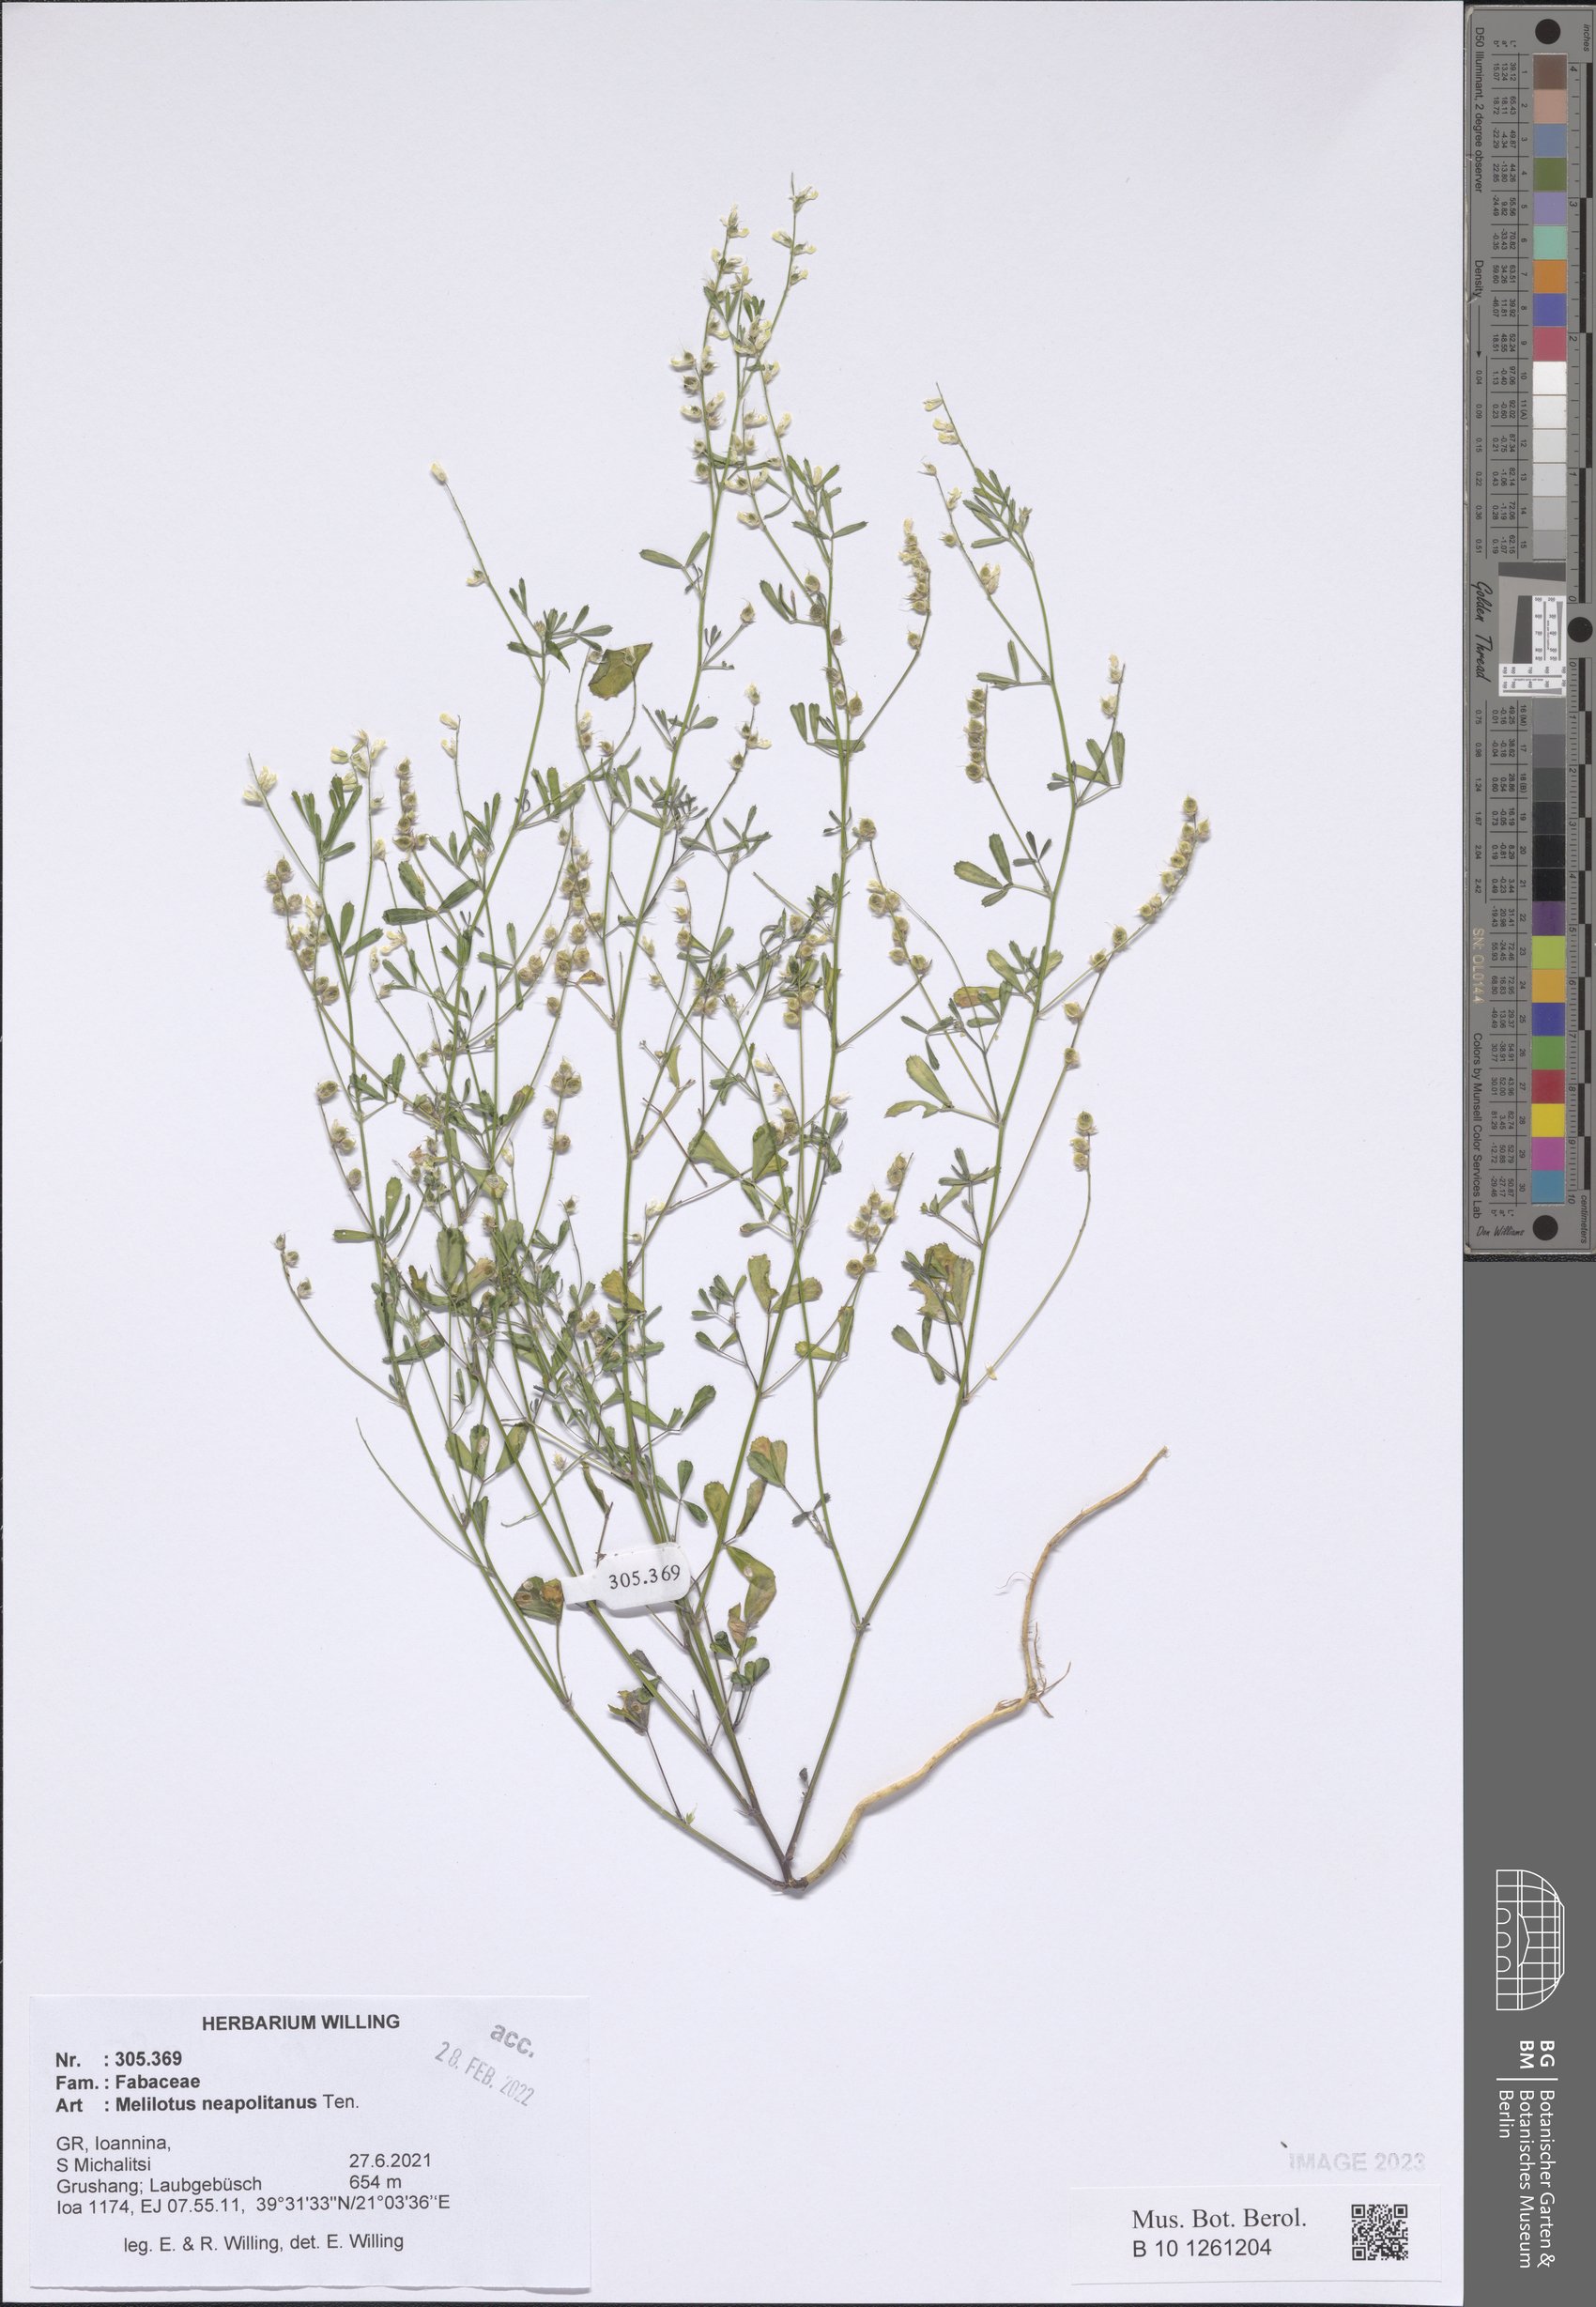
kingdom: Plantae
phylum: Tracheophyta
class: Magnoliopsida
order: Fabales
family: Fabaceae
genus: Melilotus
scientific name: Melilotus neapolitanus
